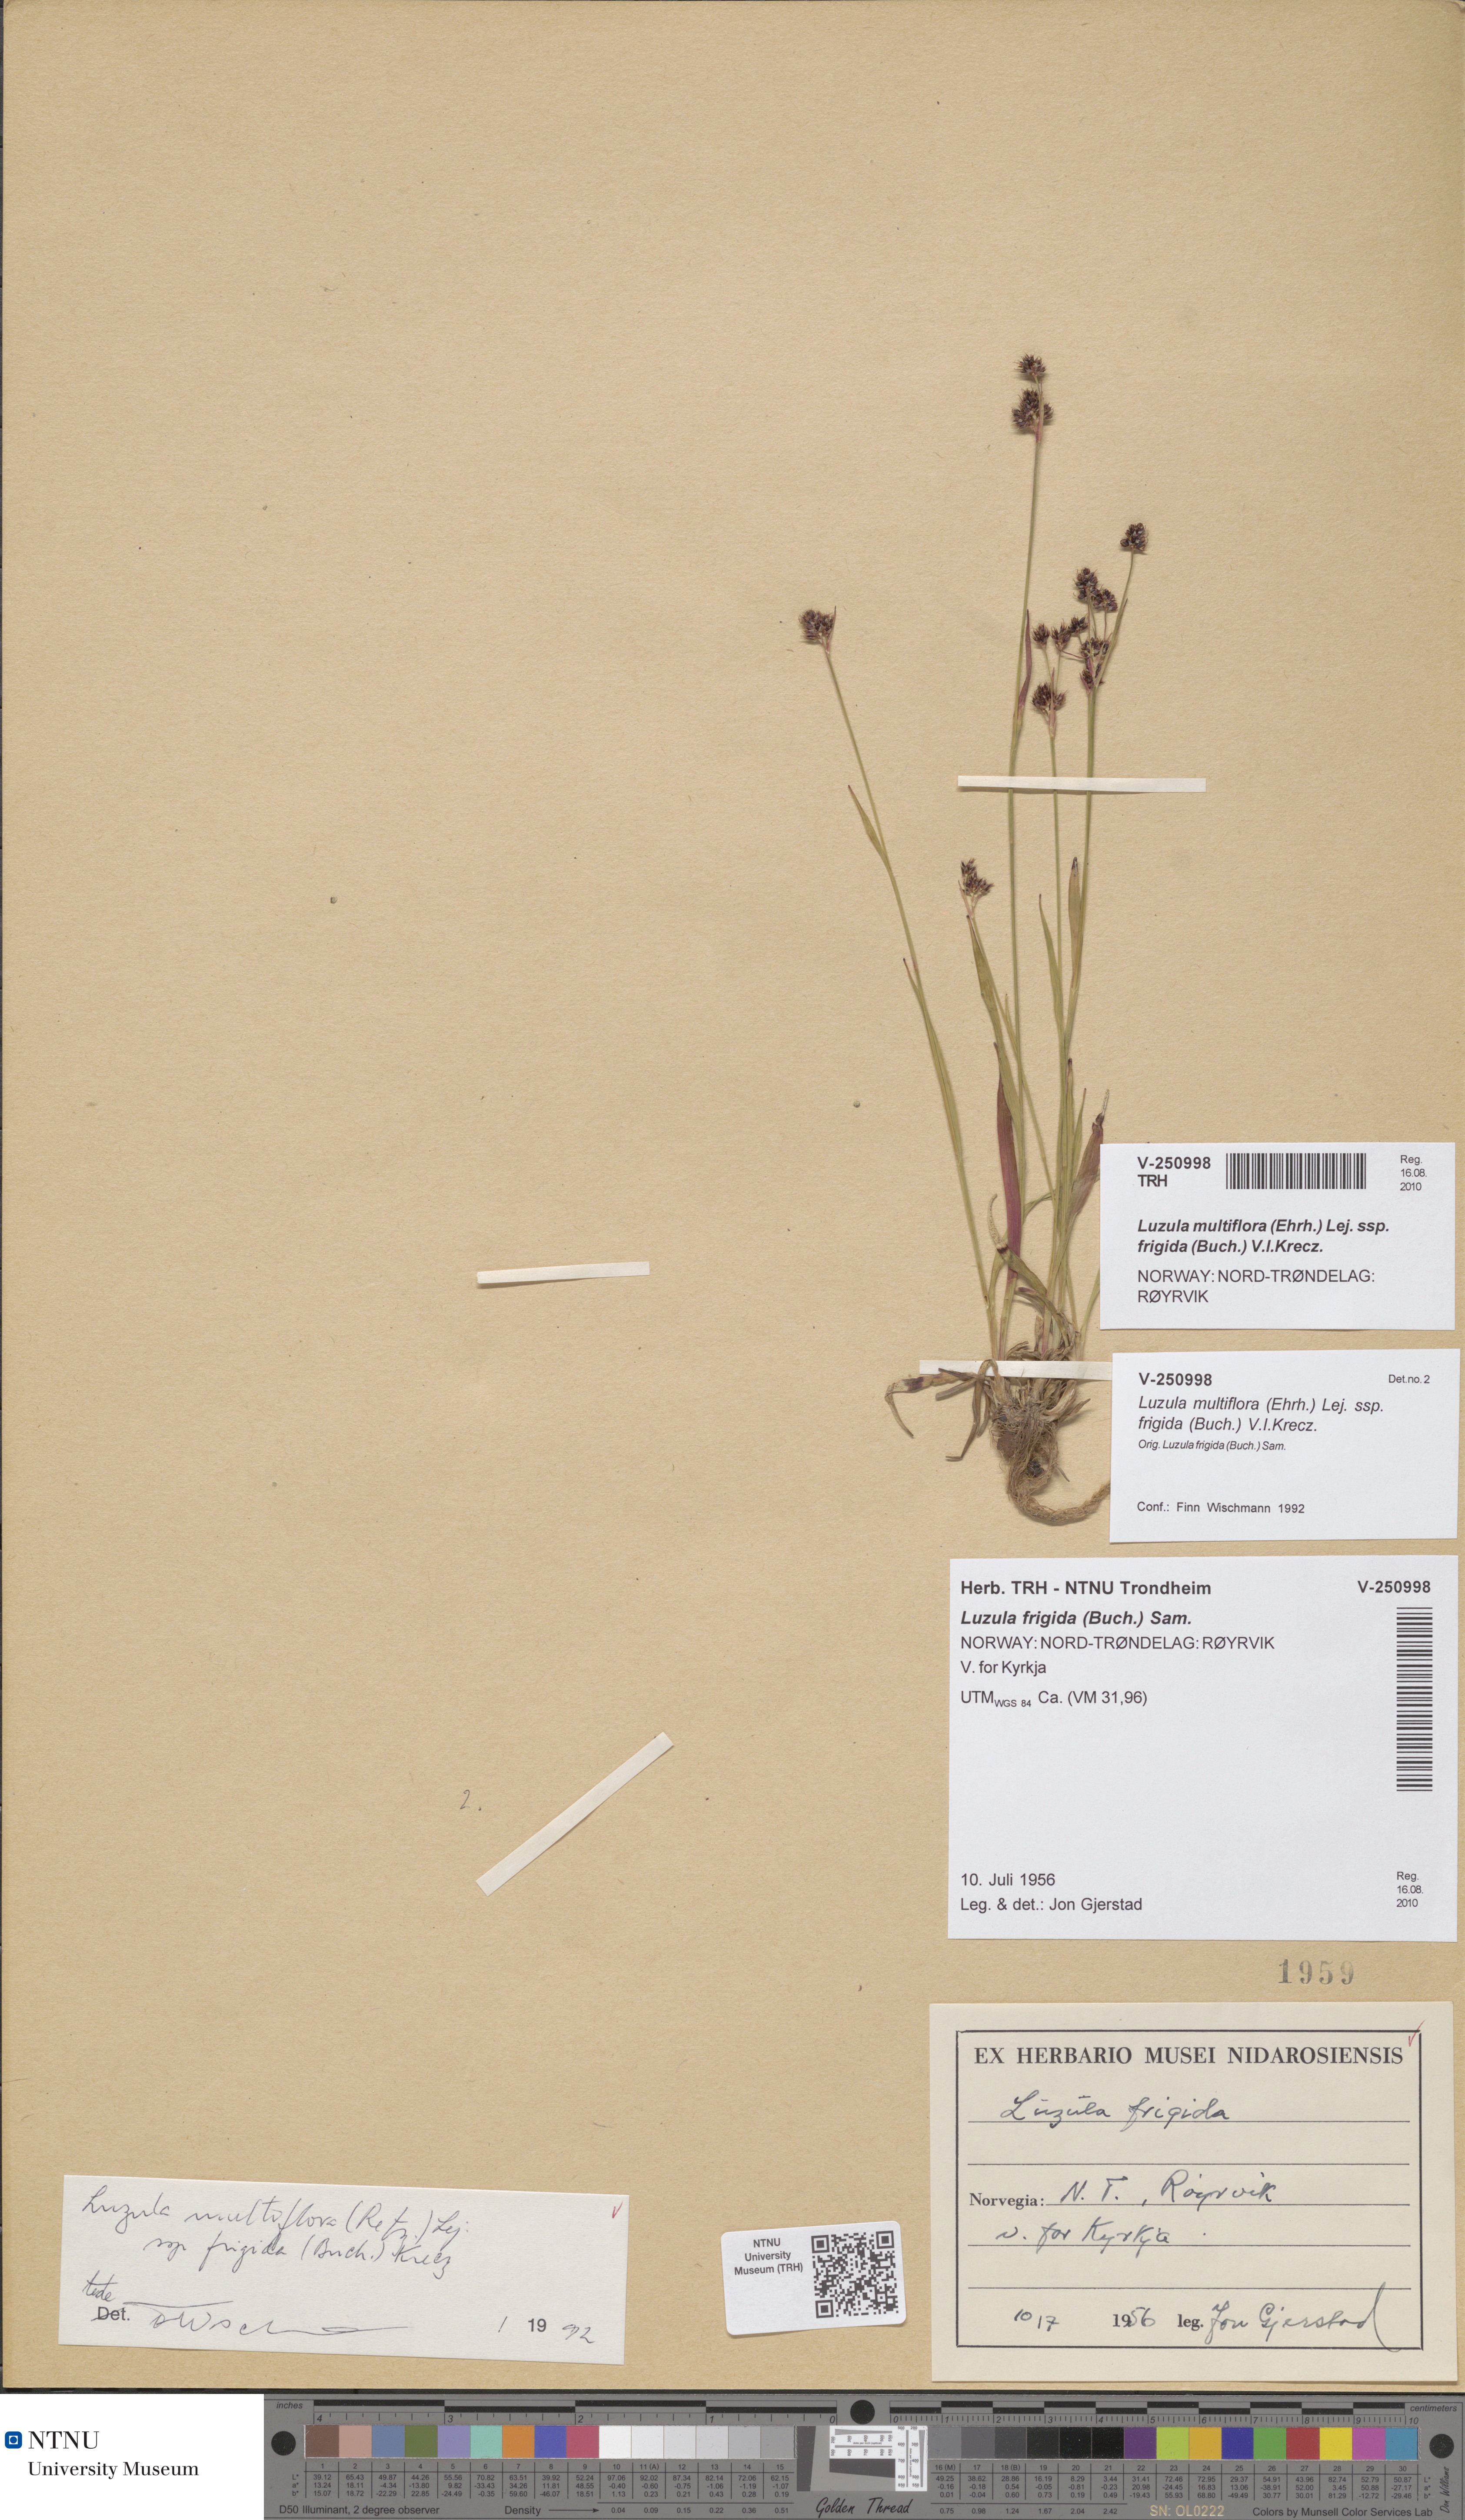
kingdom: Plantae
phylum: Tracheophyta
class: Liliopsida
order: Poales
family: Juncaceae
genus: Luzula
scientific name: Luzula multiflora
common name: Heath wood-rush
